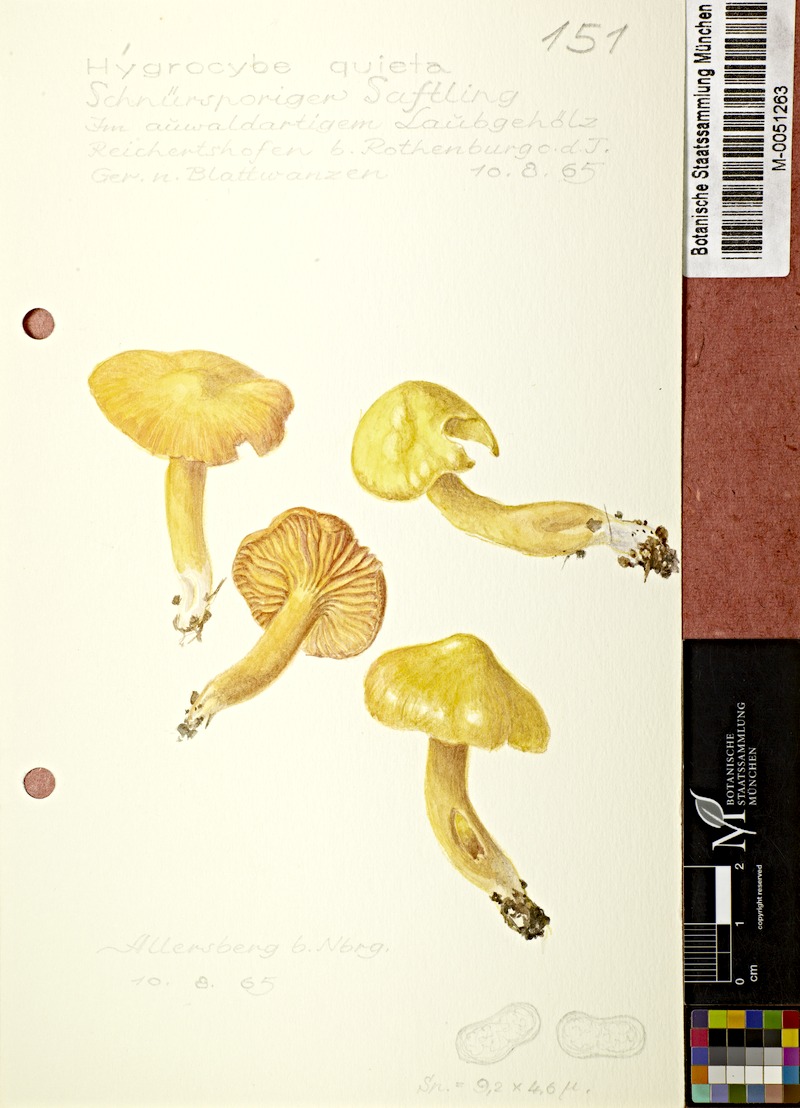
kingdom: Fungi
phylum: Basidiomycota
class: Agaricomycetes
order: Agaricales
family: Hygrophoraceae
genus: Hygrocybe
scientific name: Hygrocybe quieta
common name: Oily waxcap
